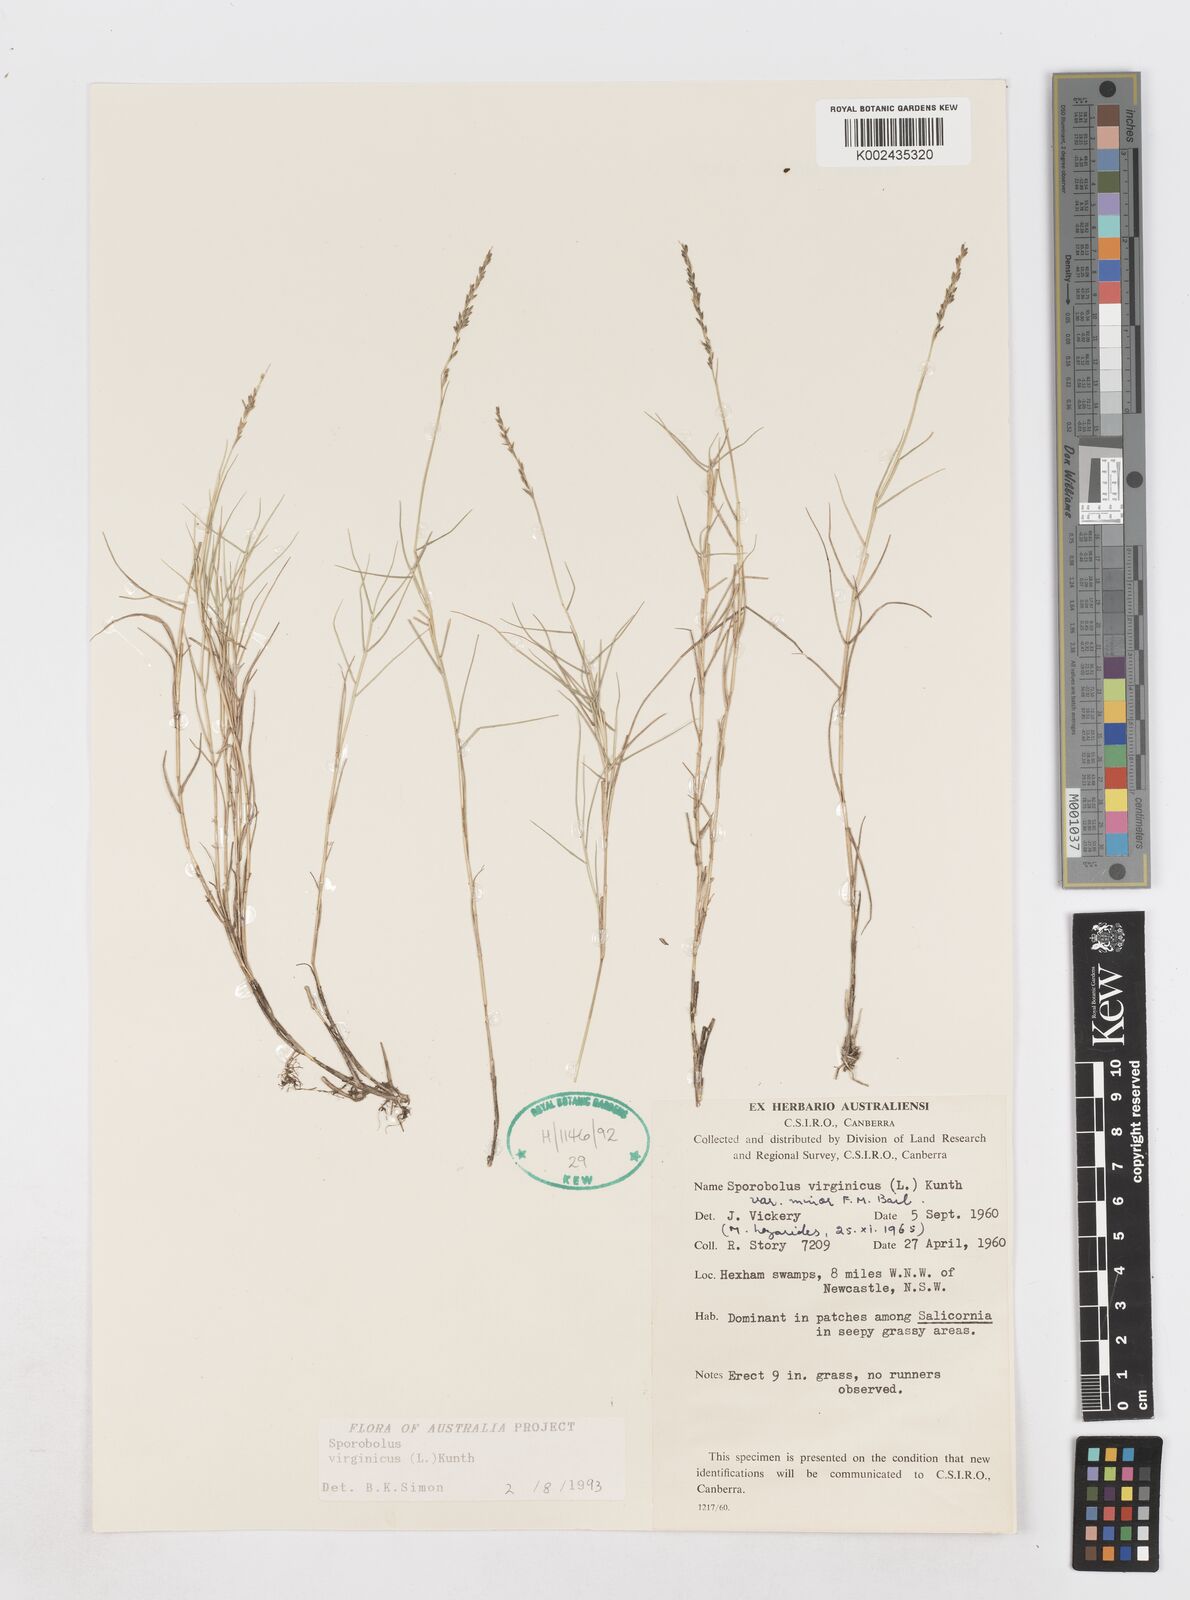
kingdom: Plantae
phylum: Tracheophyta
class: Liliopsida
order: Poales
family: Poaceae
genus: Sporobolus
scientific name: Sporobolus virginicus
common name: Beach dropseed
